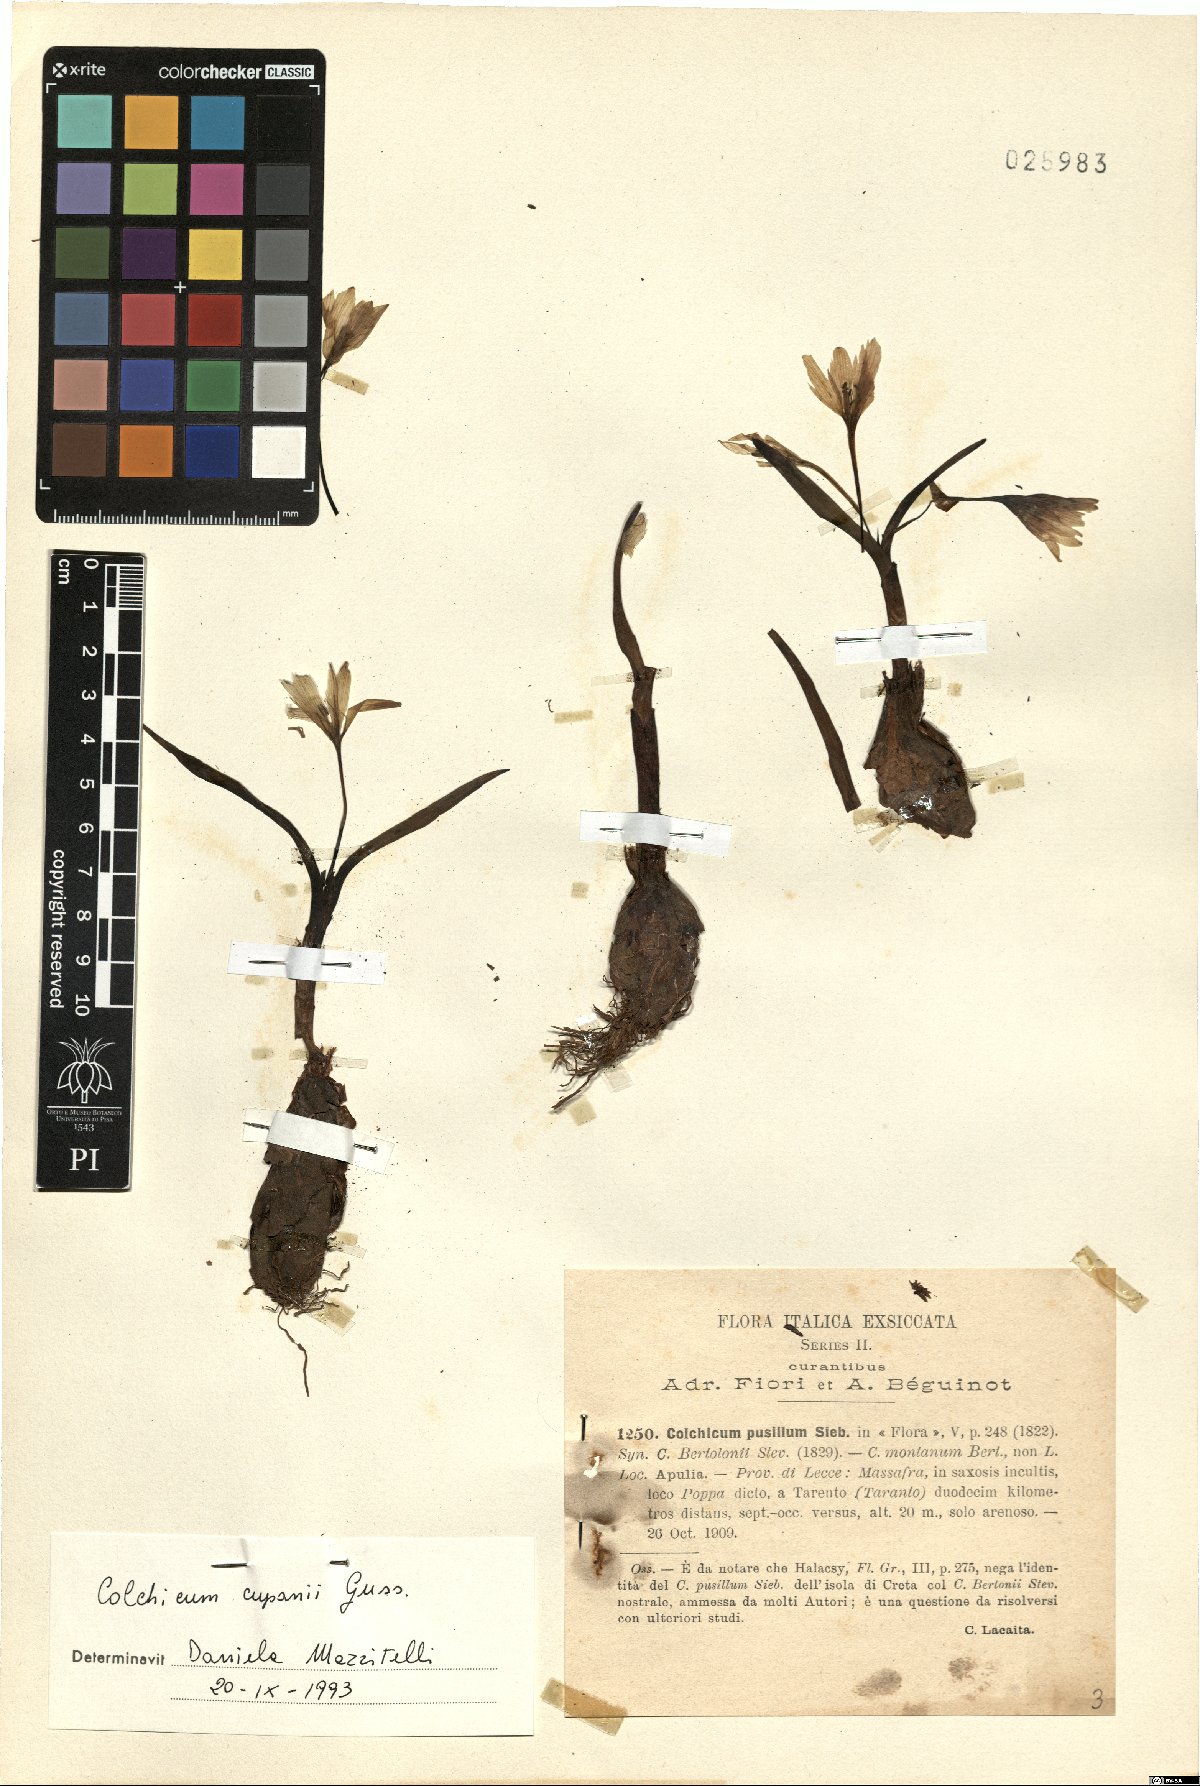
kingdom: Plantae
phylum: Tracheophyta
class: Liliopsida
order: Liliales
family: Colchicaceae
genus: Colchicum
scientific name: Colchicum cupanii
